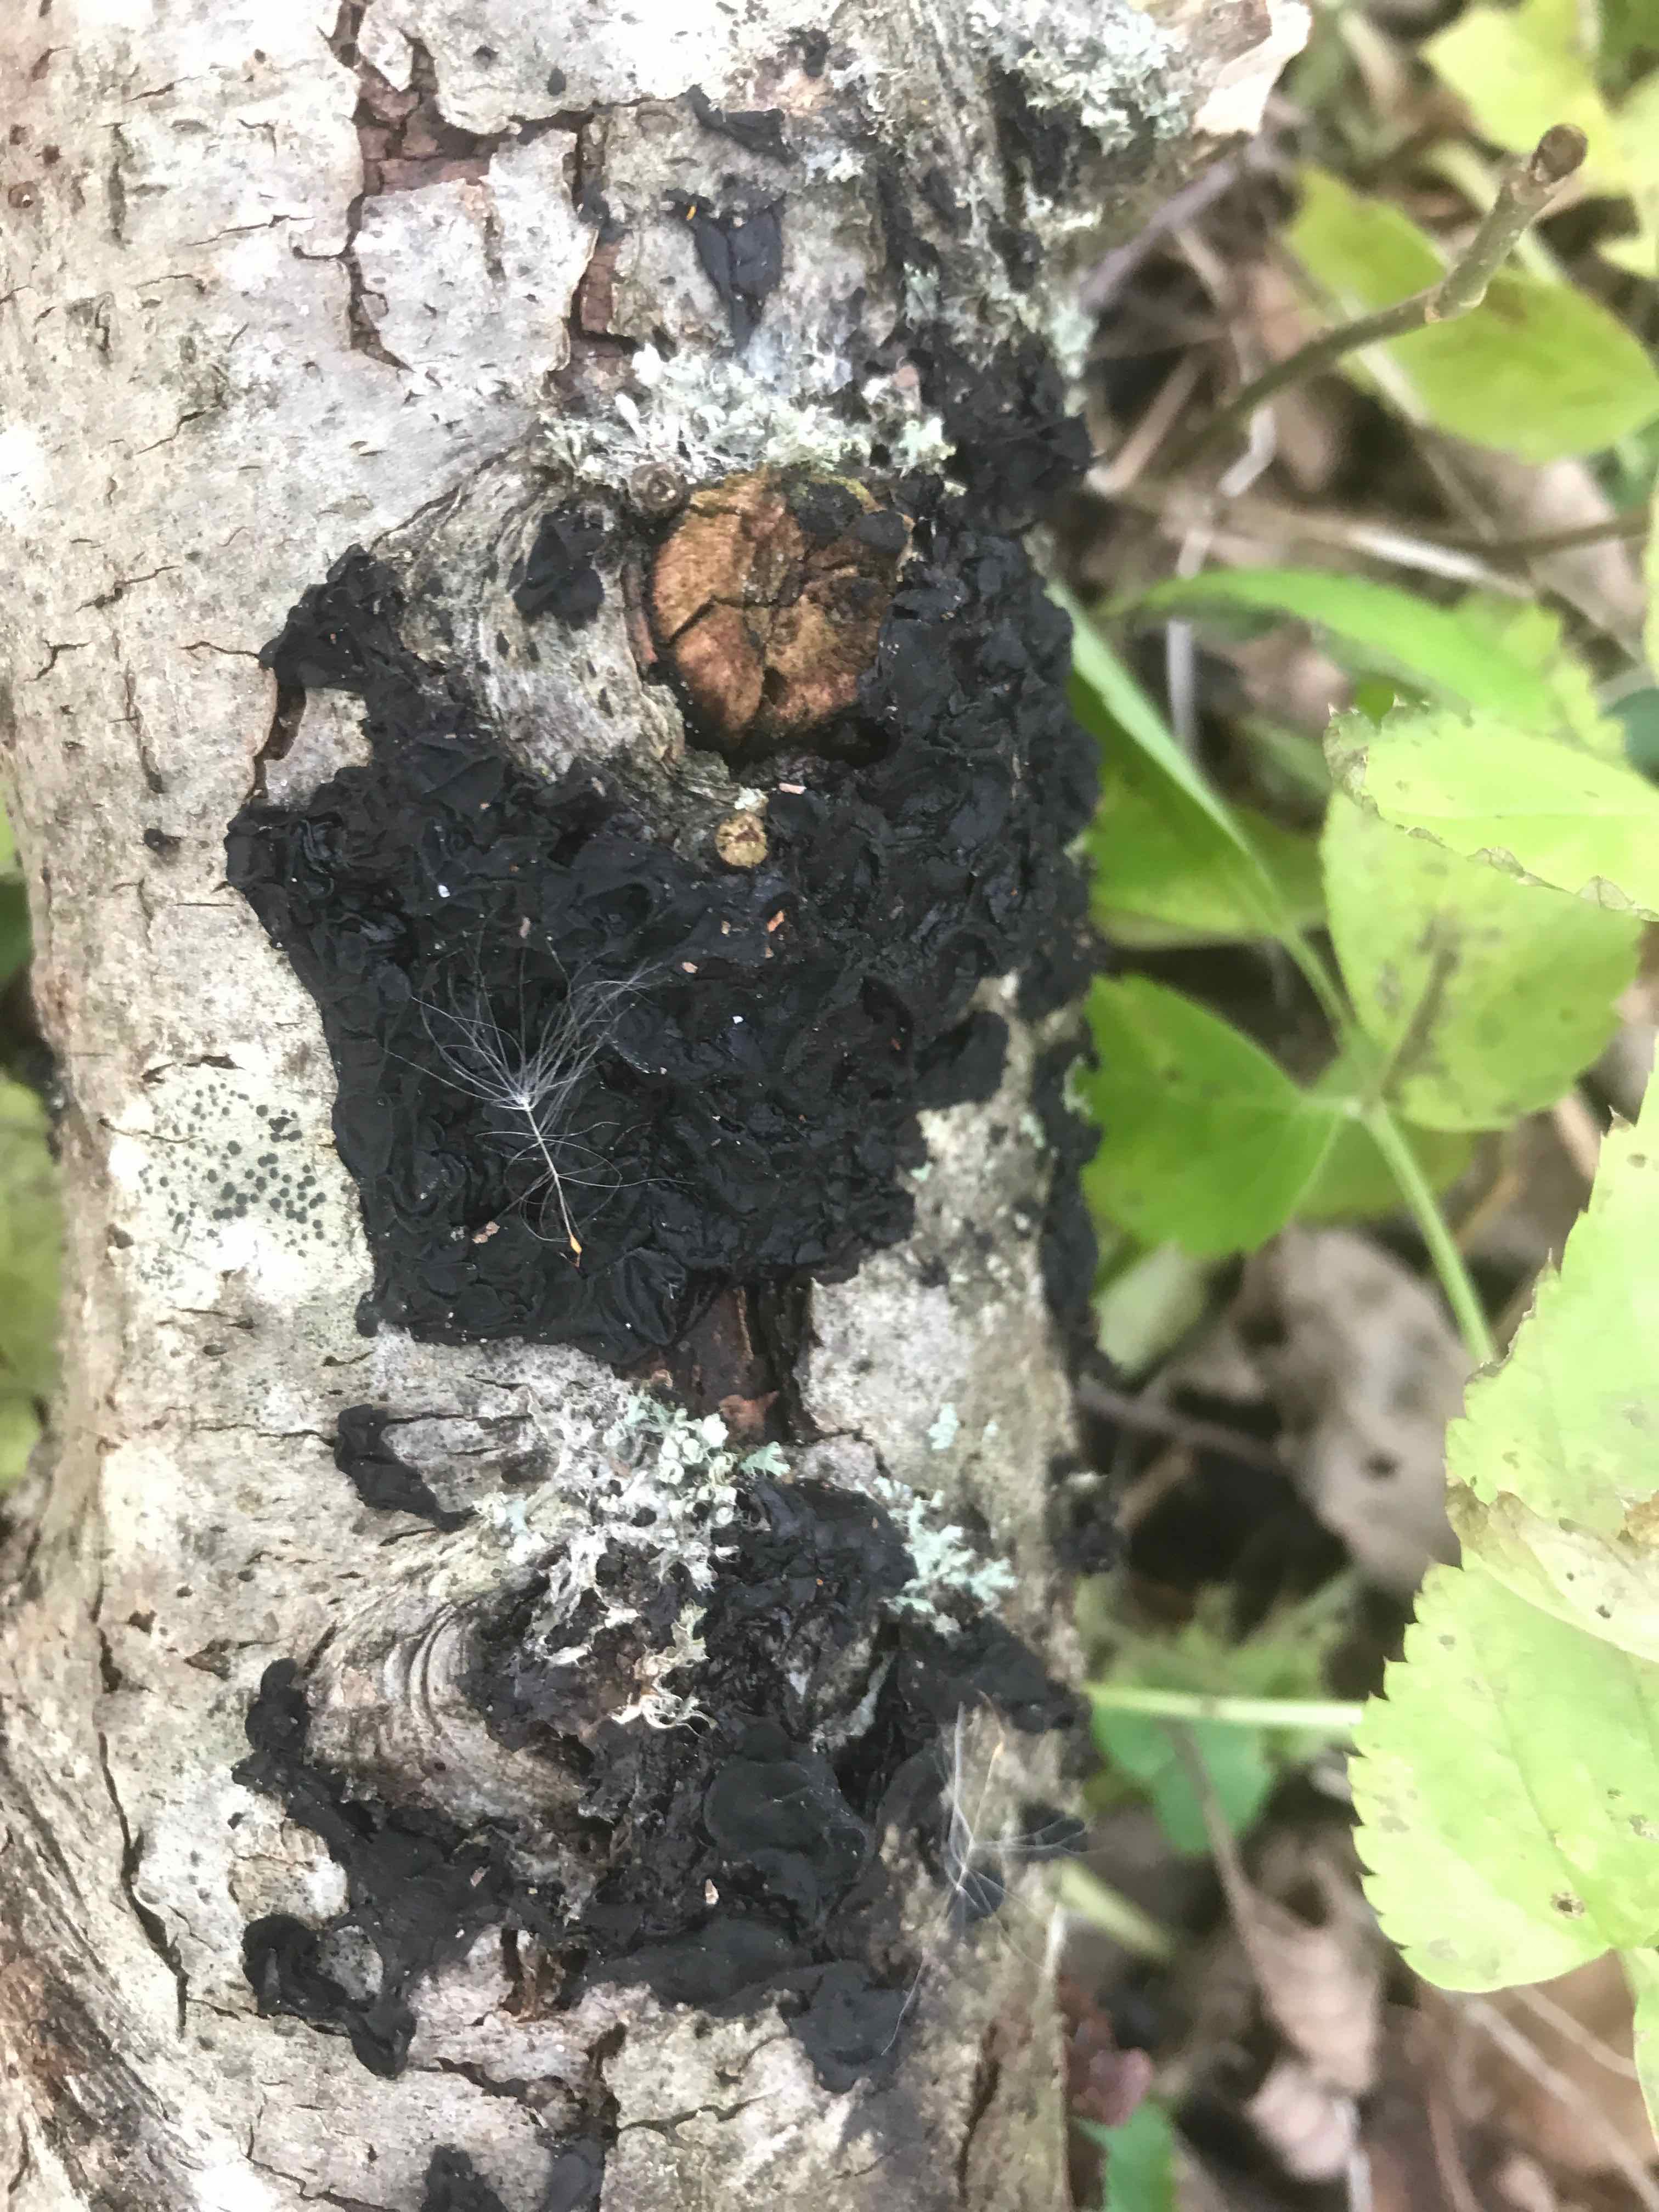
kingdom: Fungi
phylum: Basidiomycota
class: Agaricomycetes
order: Auriculariales
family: Auriculariaceae
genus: Exidia
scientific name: Exidia nigricans
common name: almindelig bævretop
